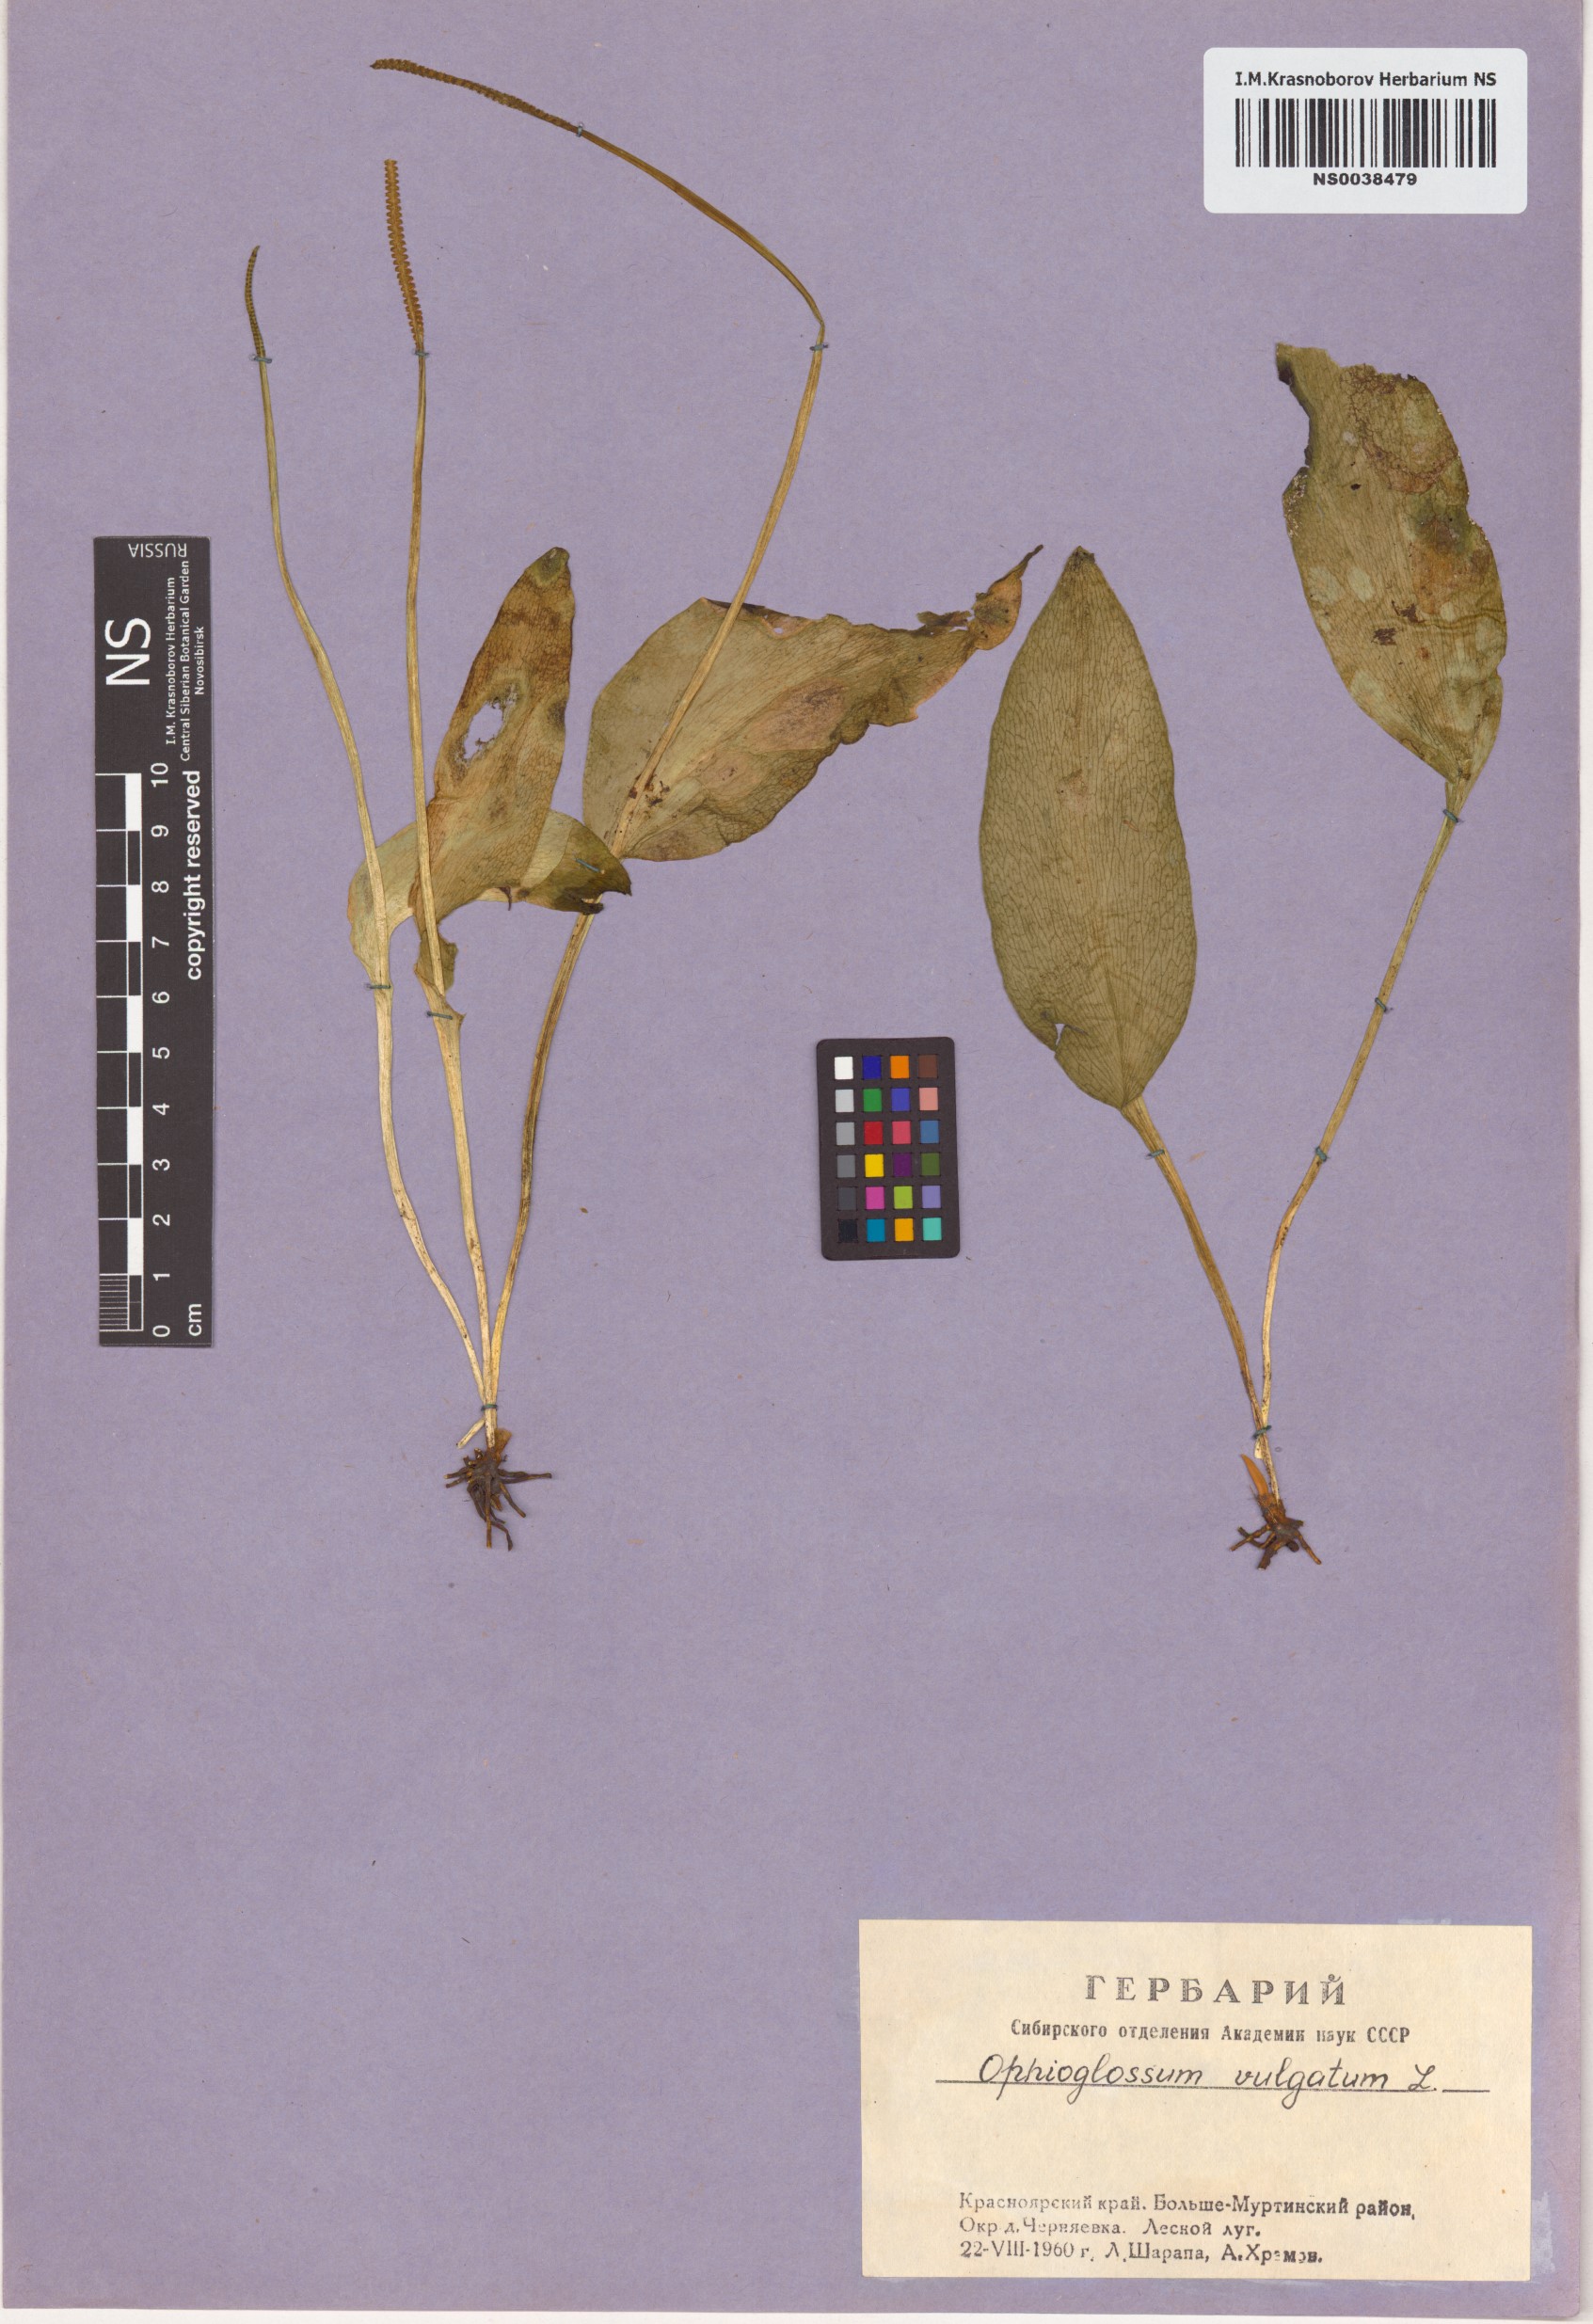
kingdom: Plantae
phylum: Tracheophyta
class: Polypodiopsida
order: Ophioglossales
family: Ophioglossaceae
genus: Ophioglossum
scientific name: Ophioglossum vulgatum
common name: Adder's-tongue
